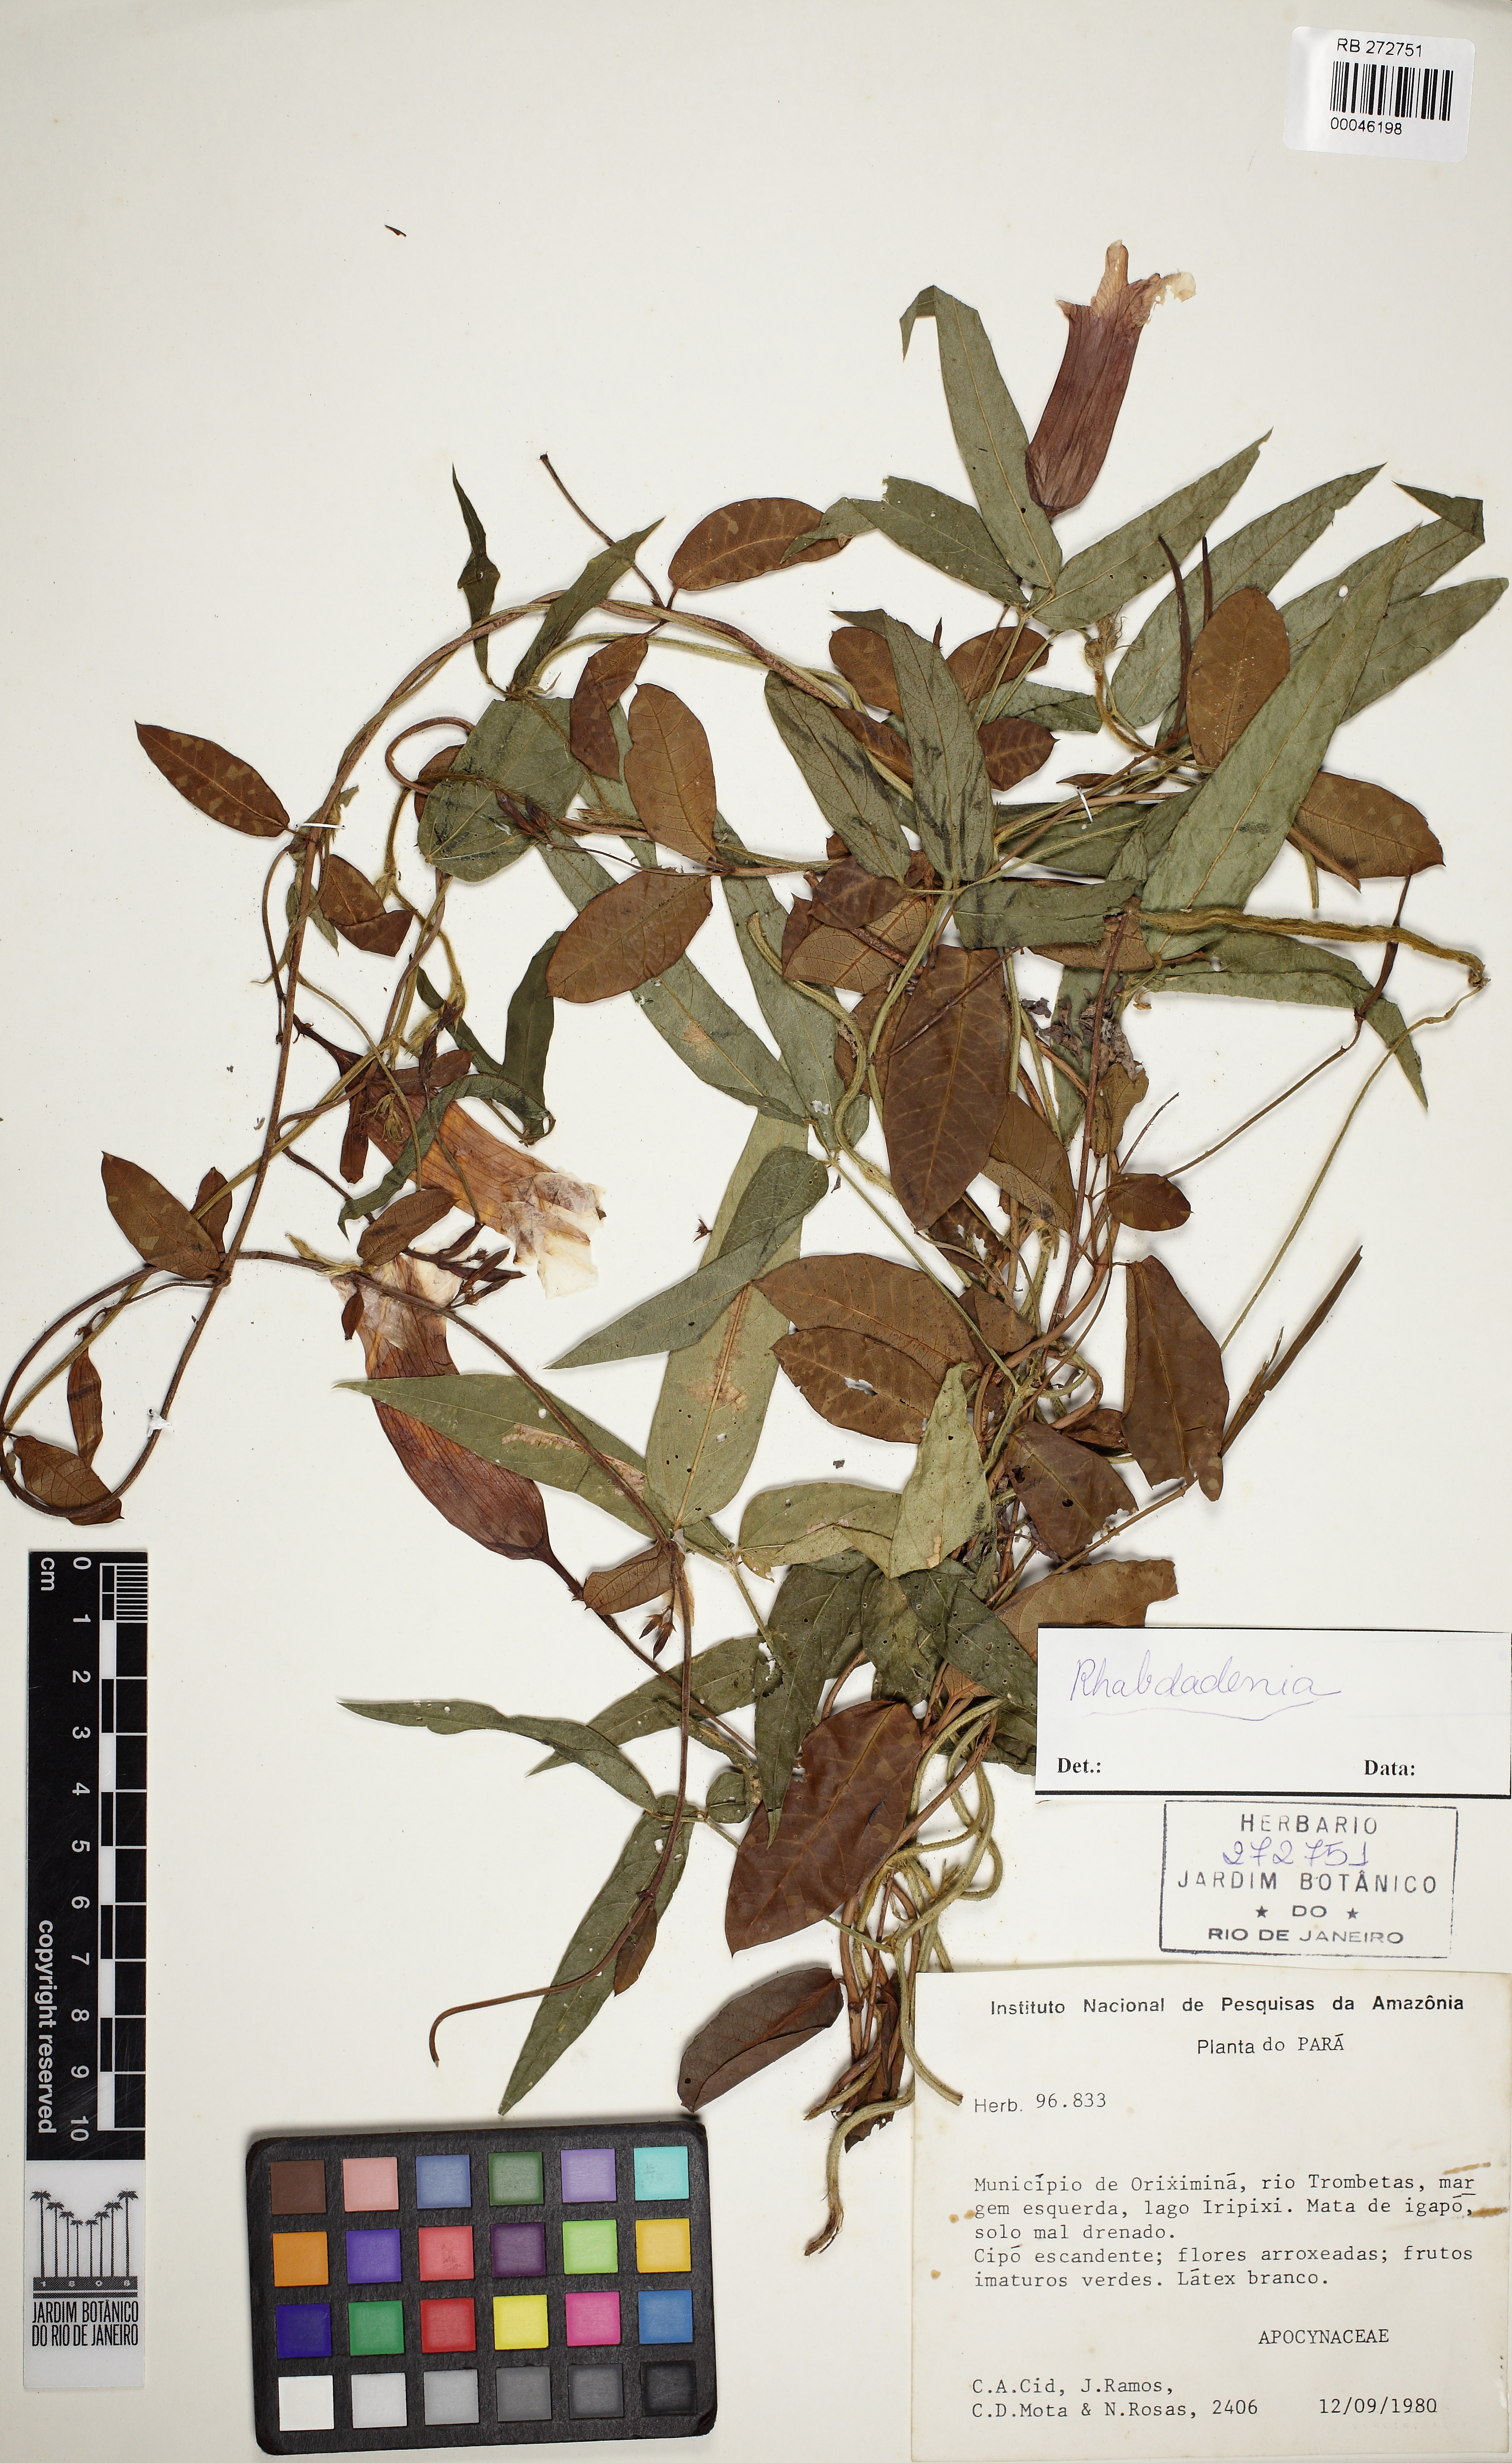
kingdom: Plantae
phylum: Tracheophyta
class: Magnoliopsida
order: Gentianales
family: Apocynaceae
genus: Rhabdadenia
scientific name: Rhabdadenia
